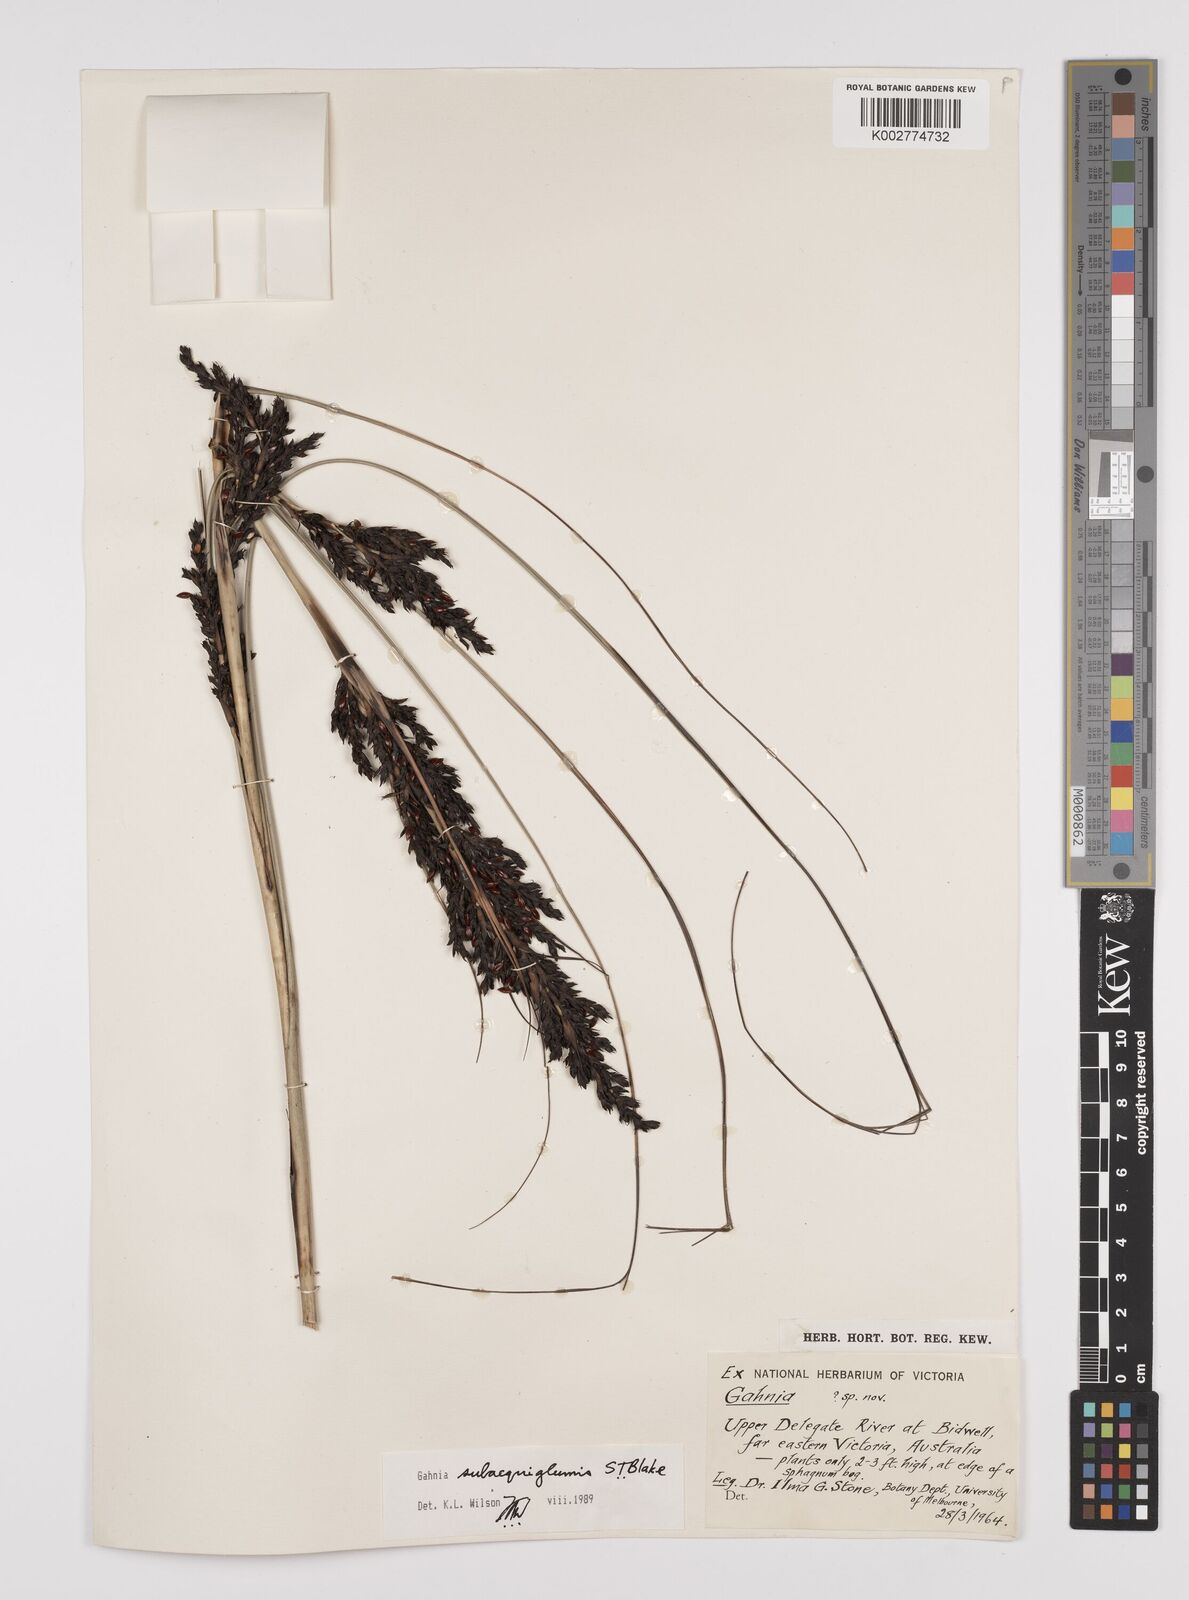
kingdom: Plantae
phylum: Tracheophyta
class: Liliopsida
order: Poales
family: Cyperaceae
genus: Gahnia
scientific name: Gahnia subaequiglumis
